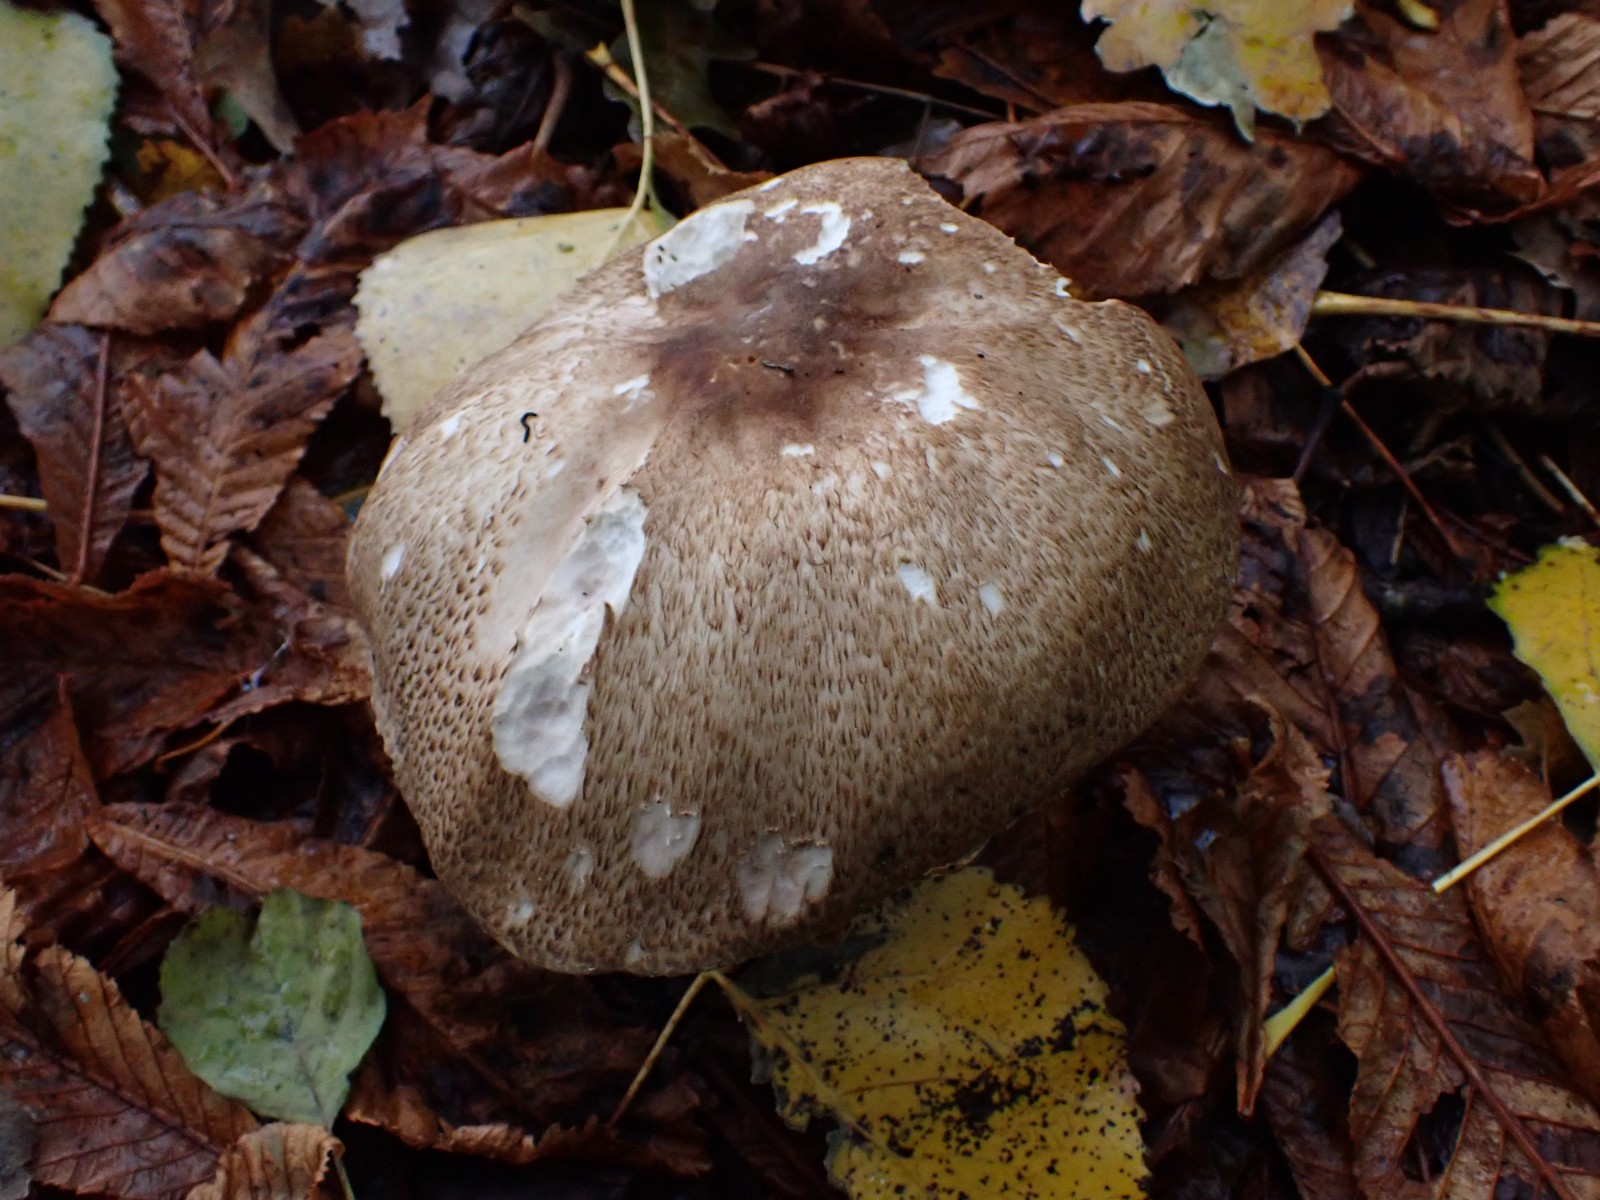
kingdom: Fungi
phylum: Basidiomycota
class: Agaricomycetes
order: Agaricales
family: Agaricaceae
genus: Agaricus
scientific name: Agaricus augustus
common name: prægtig champignon
